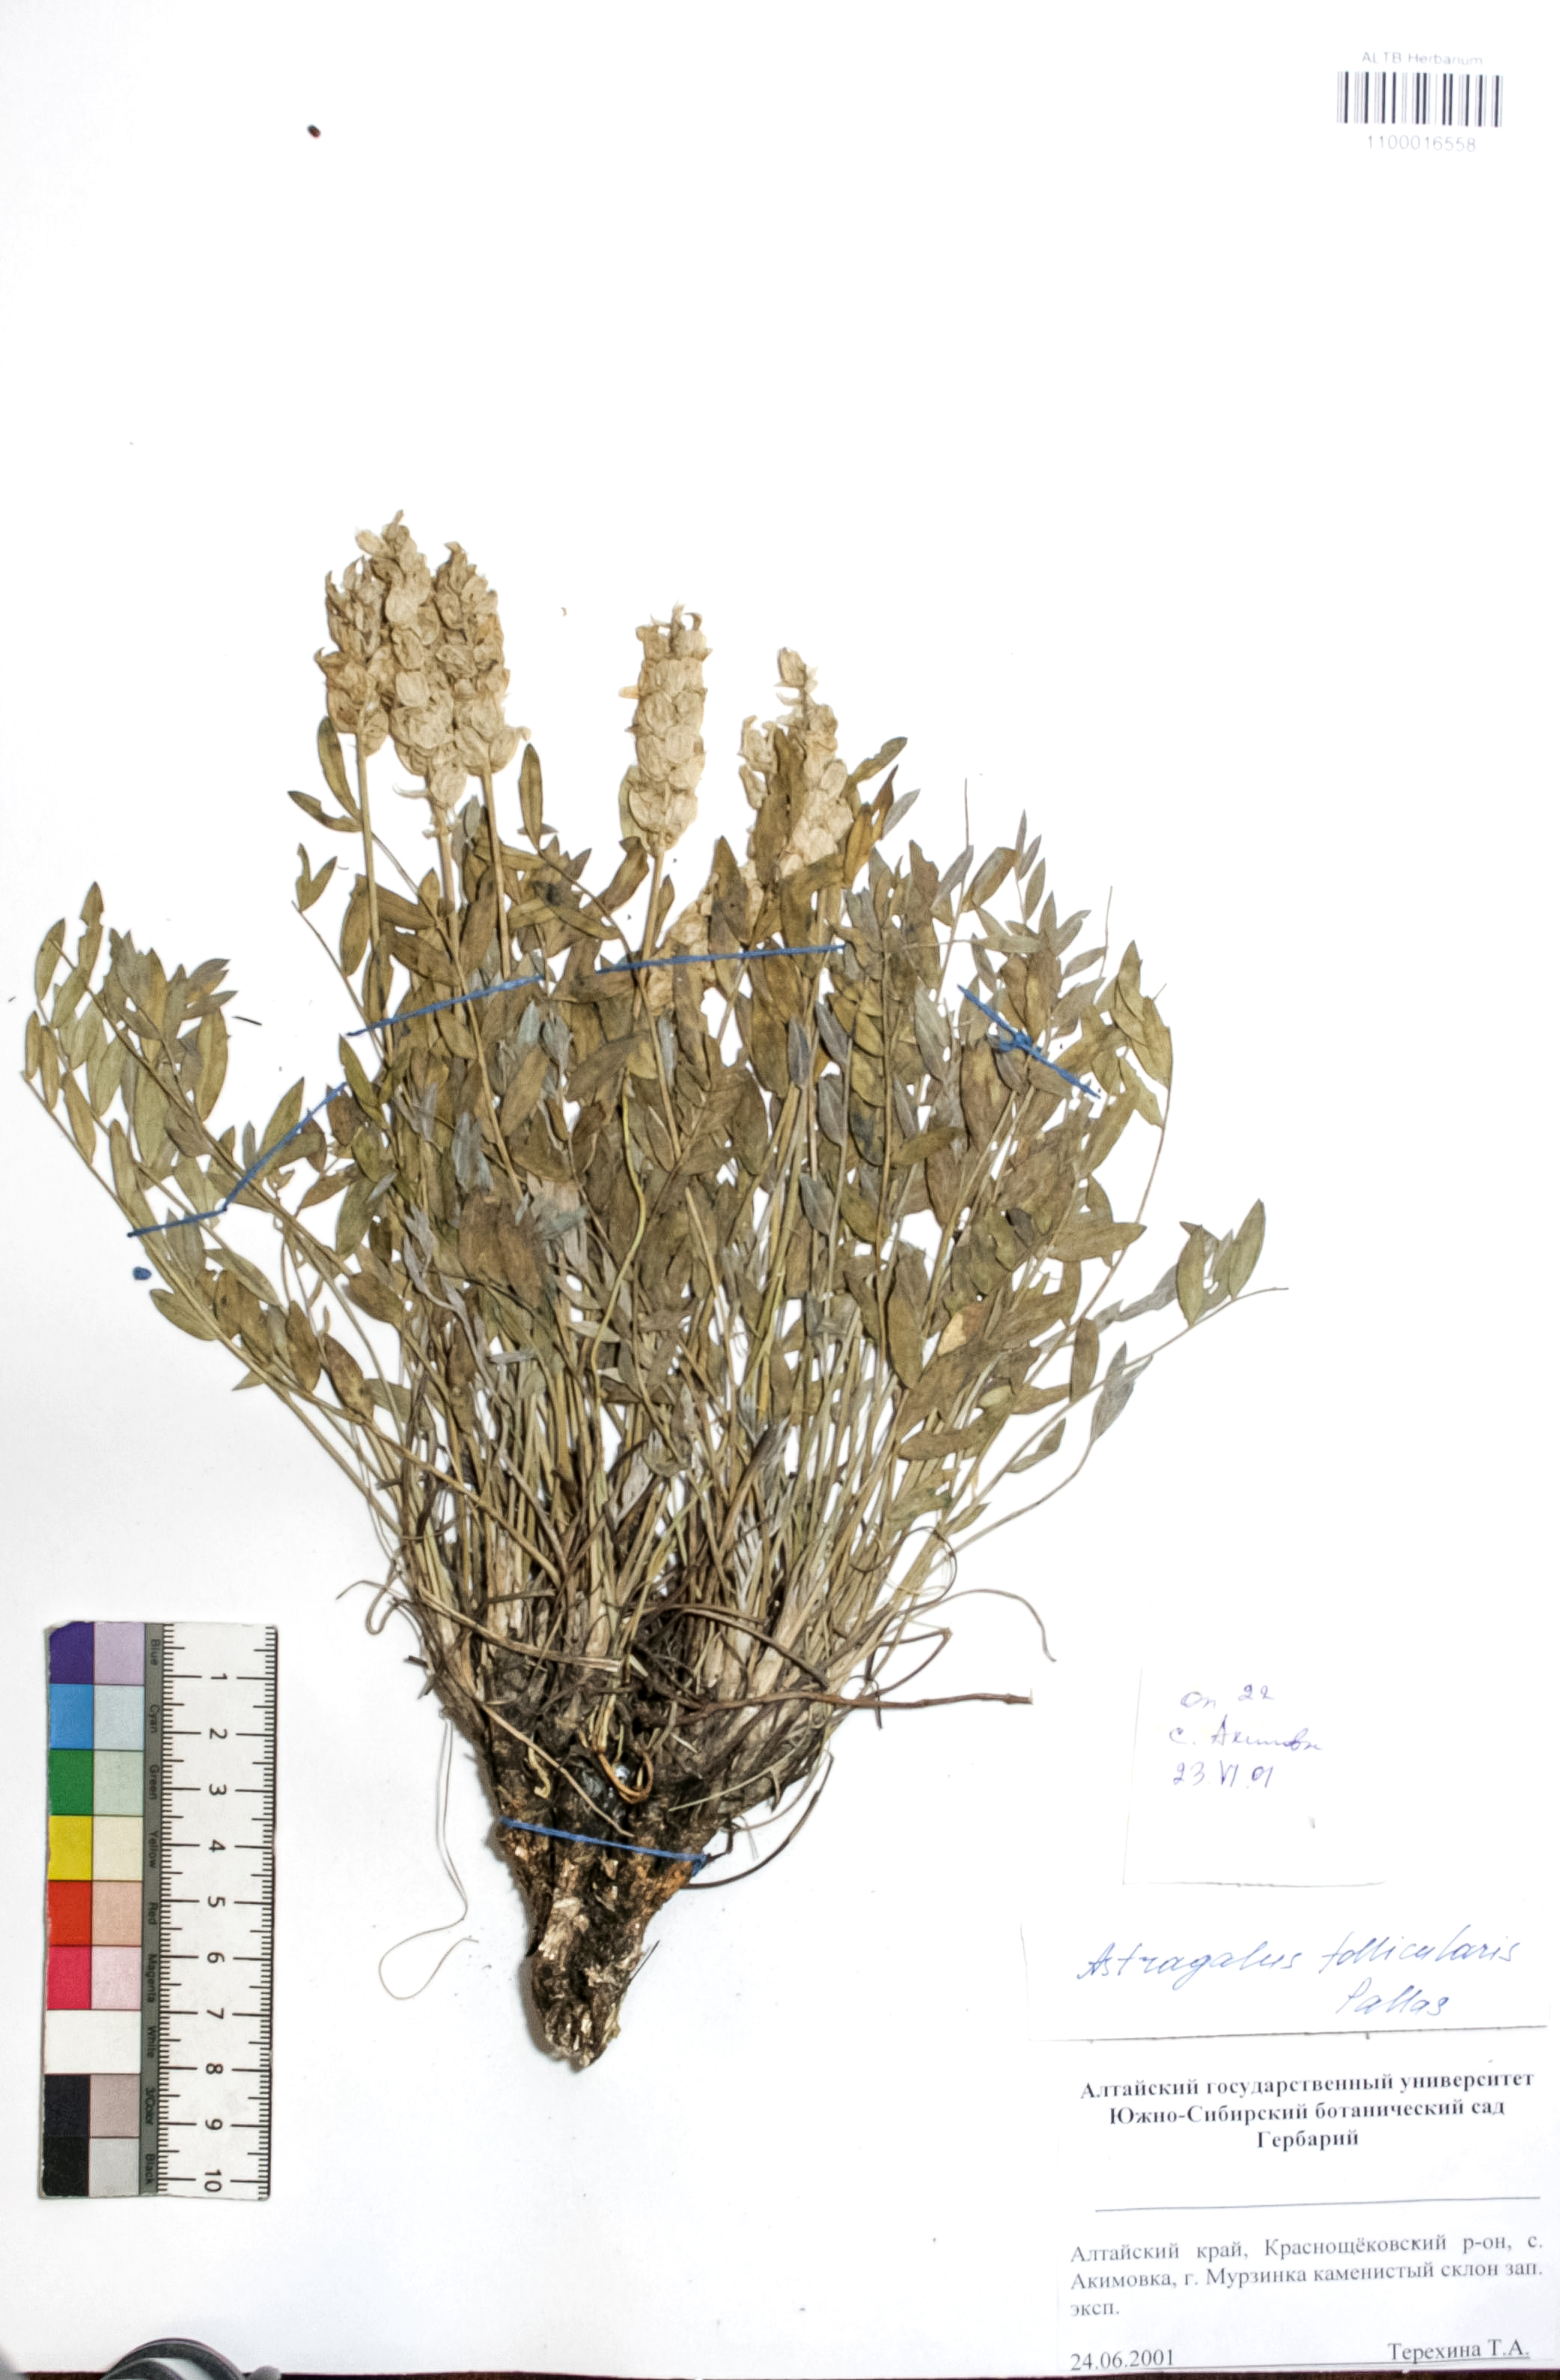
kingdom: Plantae
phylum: Tracheophyta
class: Magnoliopsida
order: Fabales
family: Fabaceae
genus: Astragalus
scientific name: Astragalus follicularis
